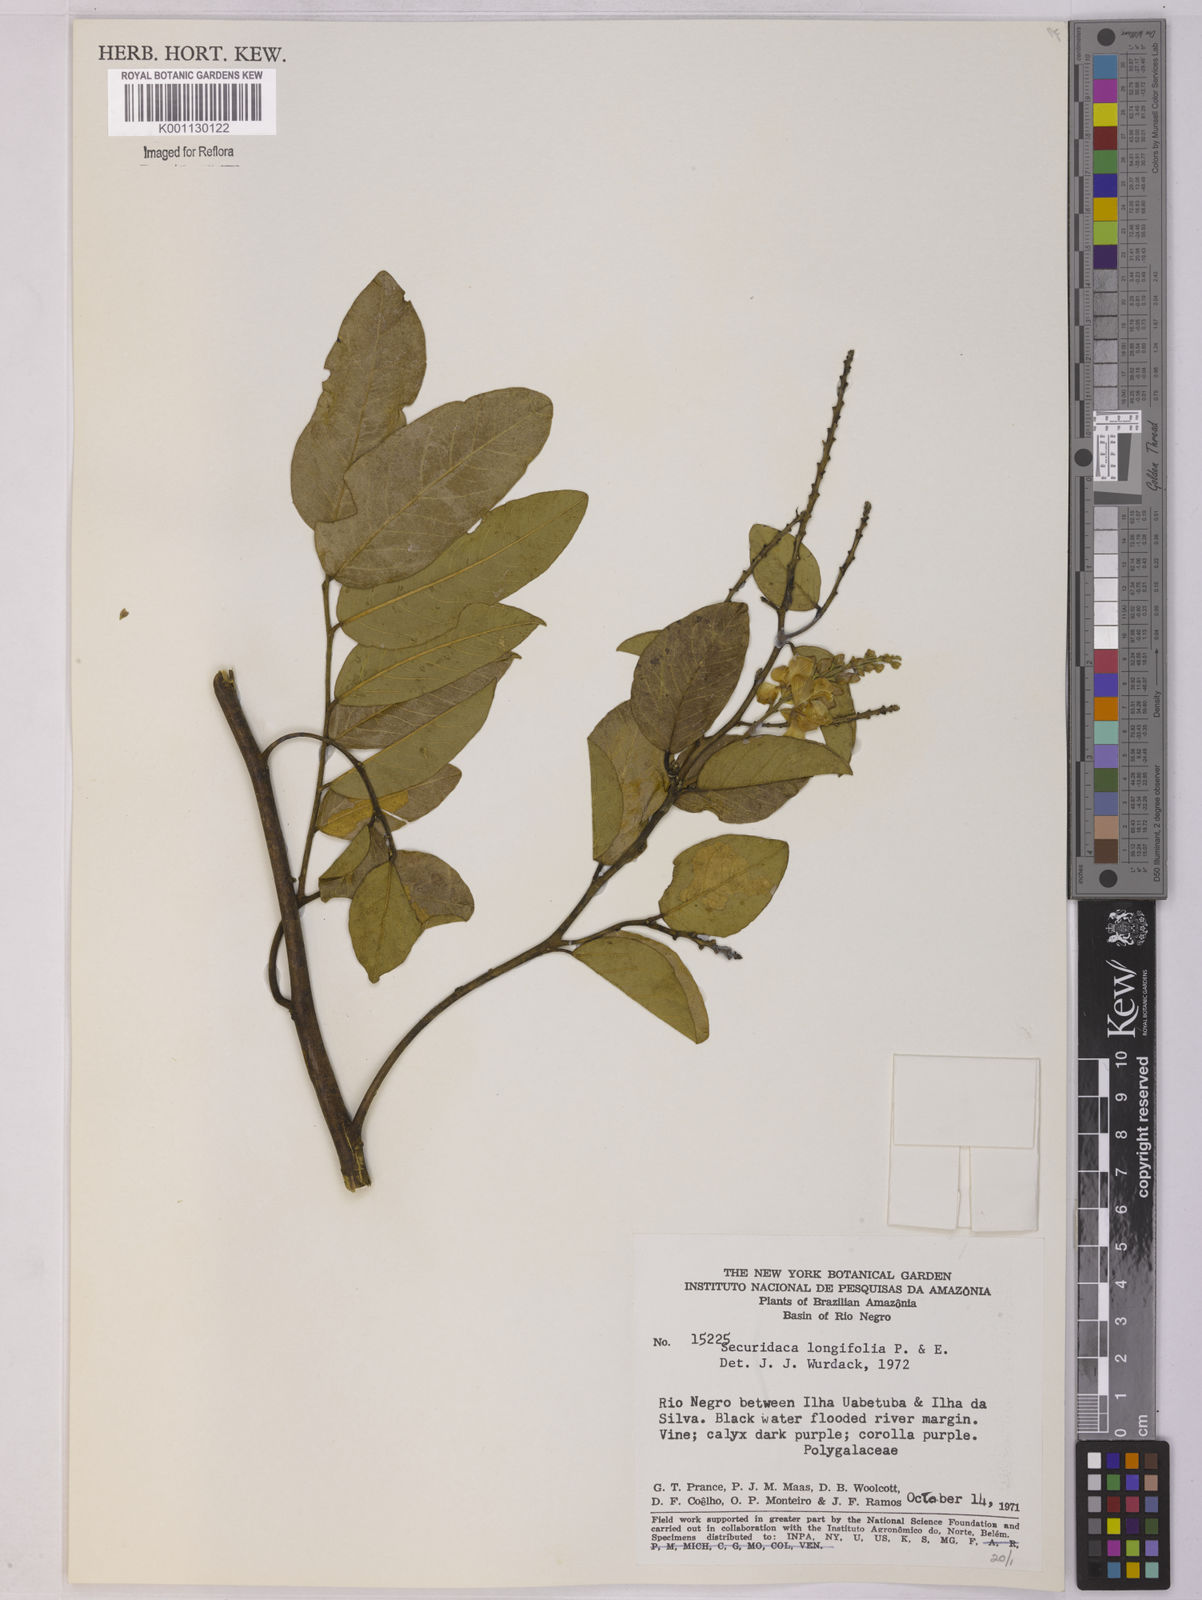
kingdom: Plantae
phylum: Tracheophyta
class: Magnoliopsida
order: Fabales
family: Polygalaceae
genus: Securidaca
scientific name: Securidaca longifolia
